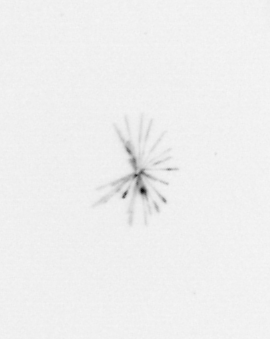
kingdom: Chromista
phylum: Ochrophyta
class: Bacillariophyceae
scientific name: Bacillariophyceae
